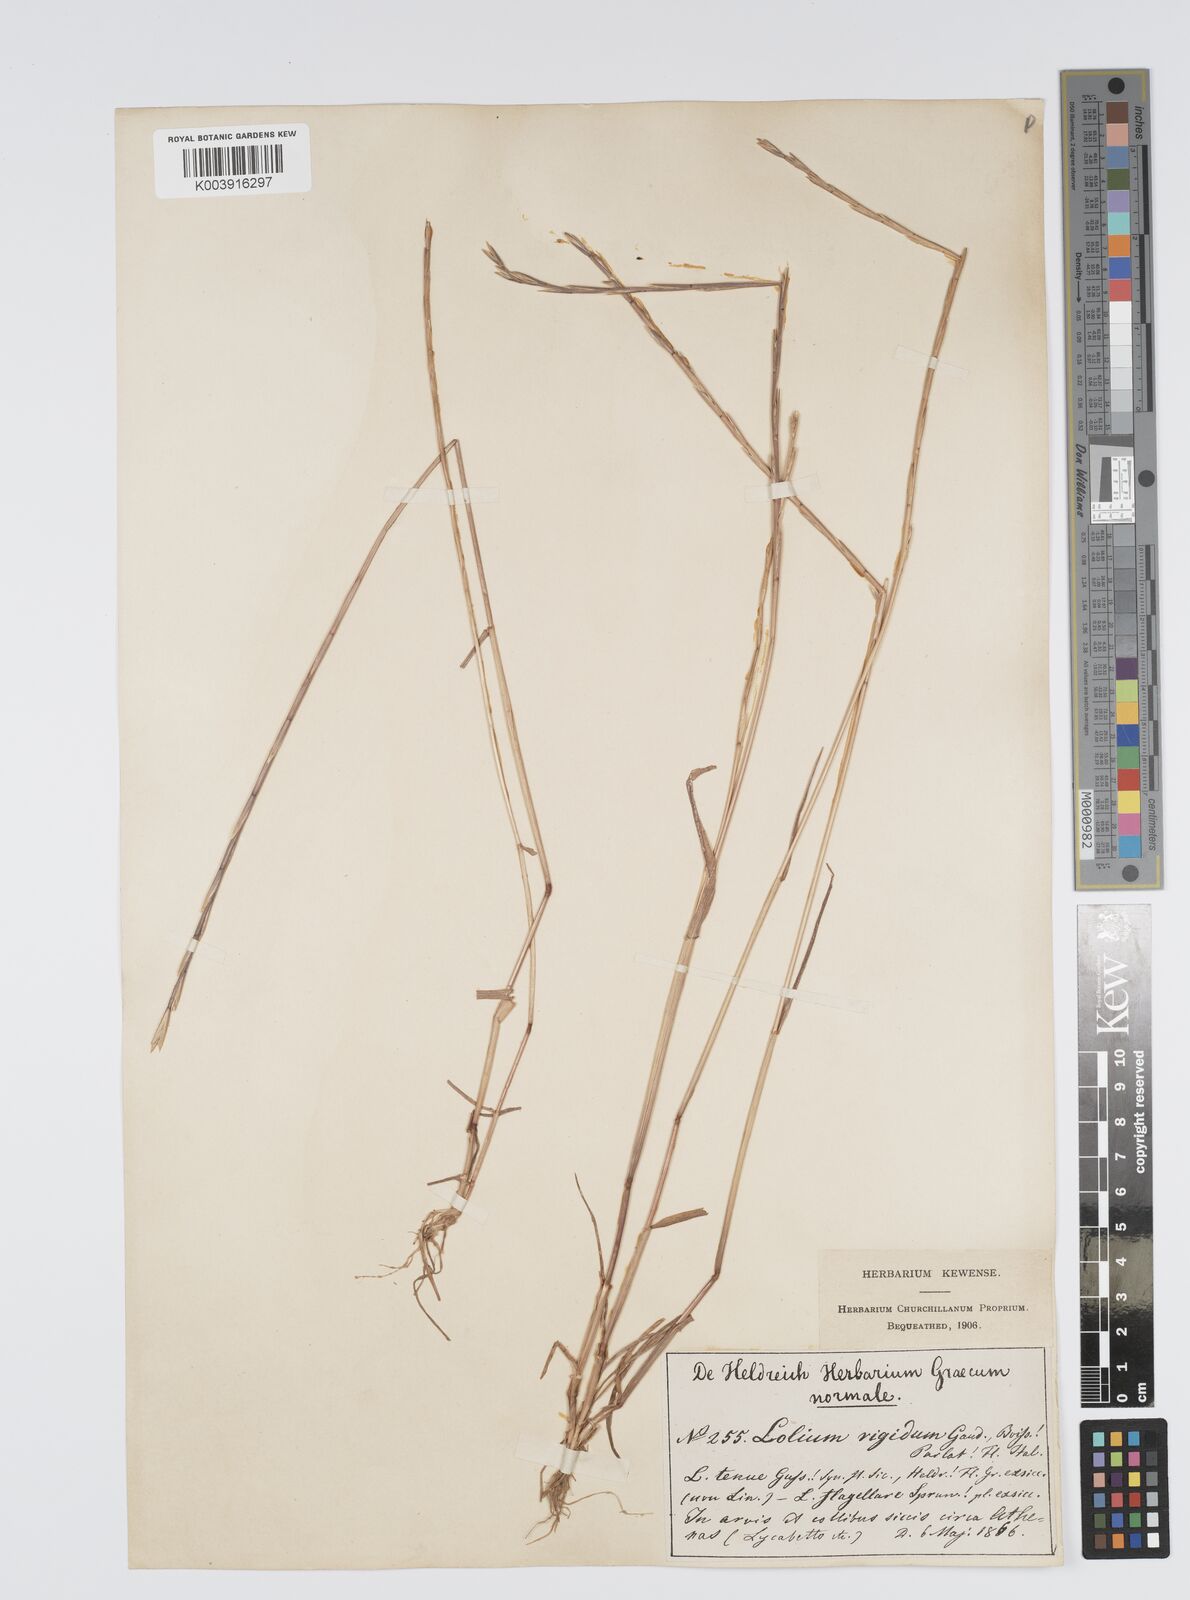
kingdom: Plantae
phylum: Tracheophyta
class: Liliopsida
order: Poales
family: Poaceae
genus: Lolium
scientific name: Lolium rigidum
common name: Wimmera ryegrass
